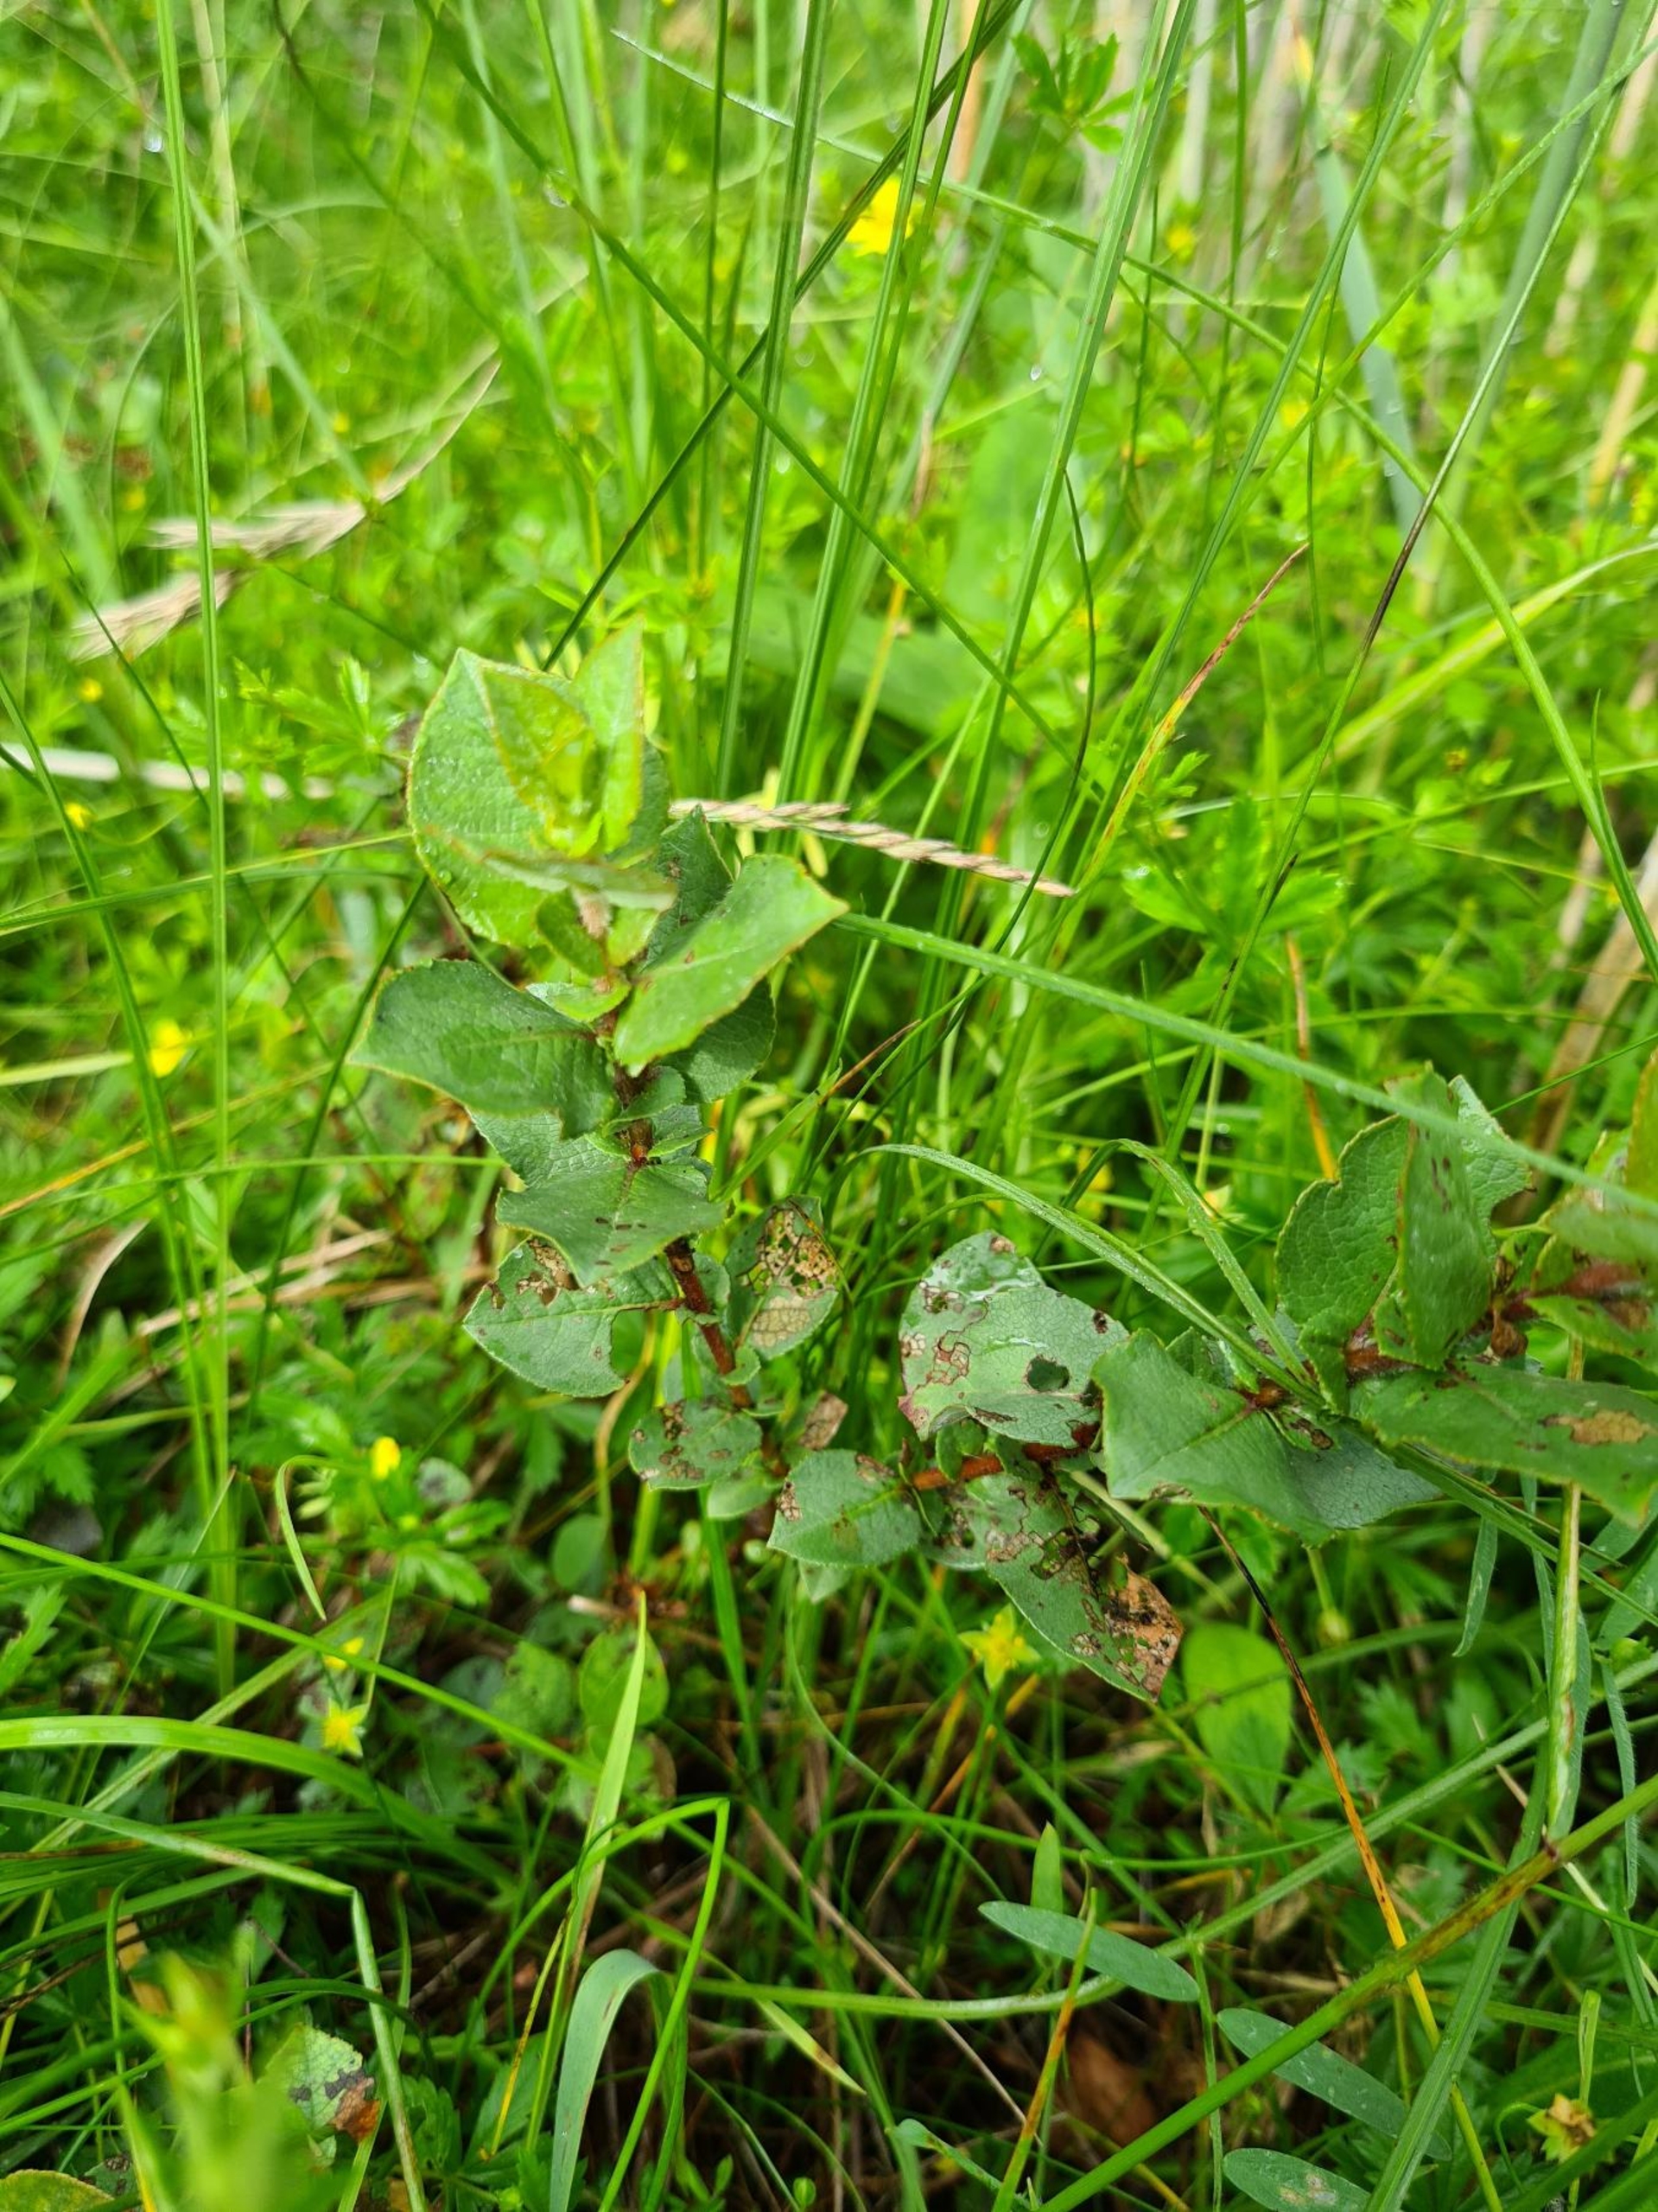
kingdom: Plantae
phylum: Tracheophyta
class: Magnoliopsida
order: Malpighiales
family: Salicaceae
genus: Salix
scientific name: Salix hastata
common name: Spyd-pil
